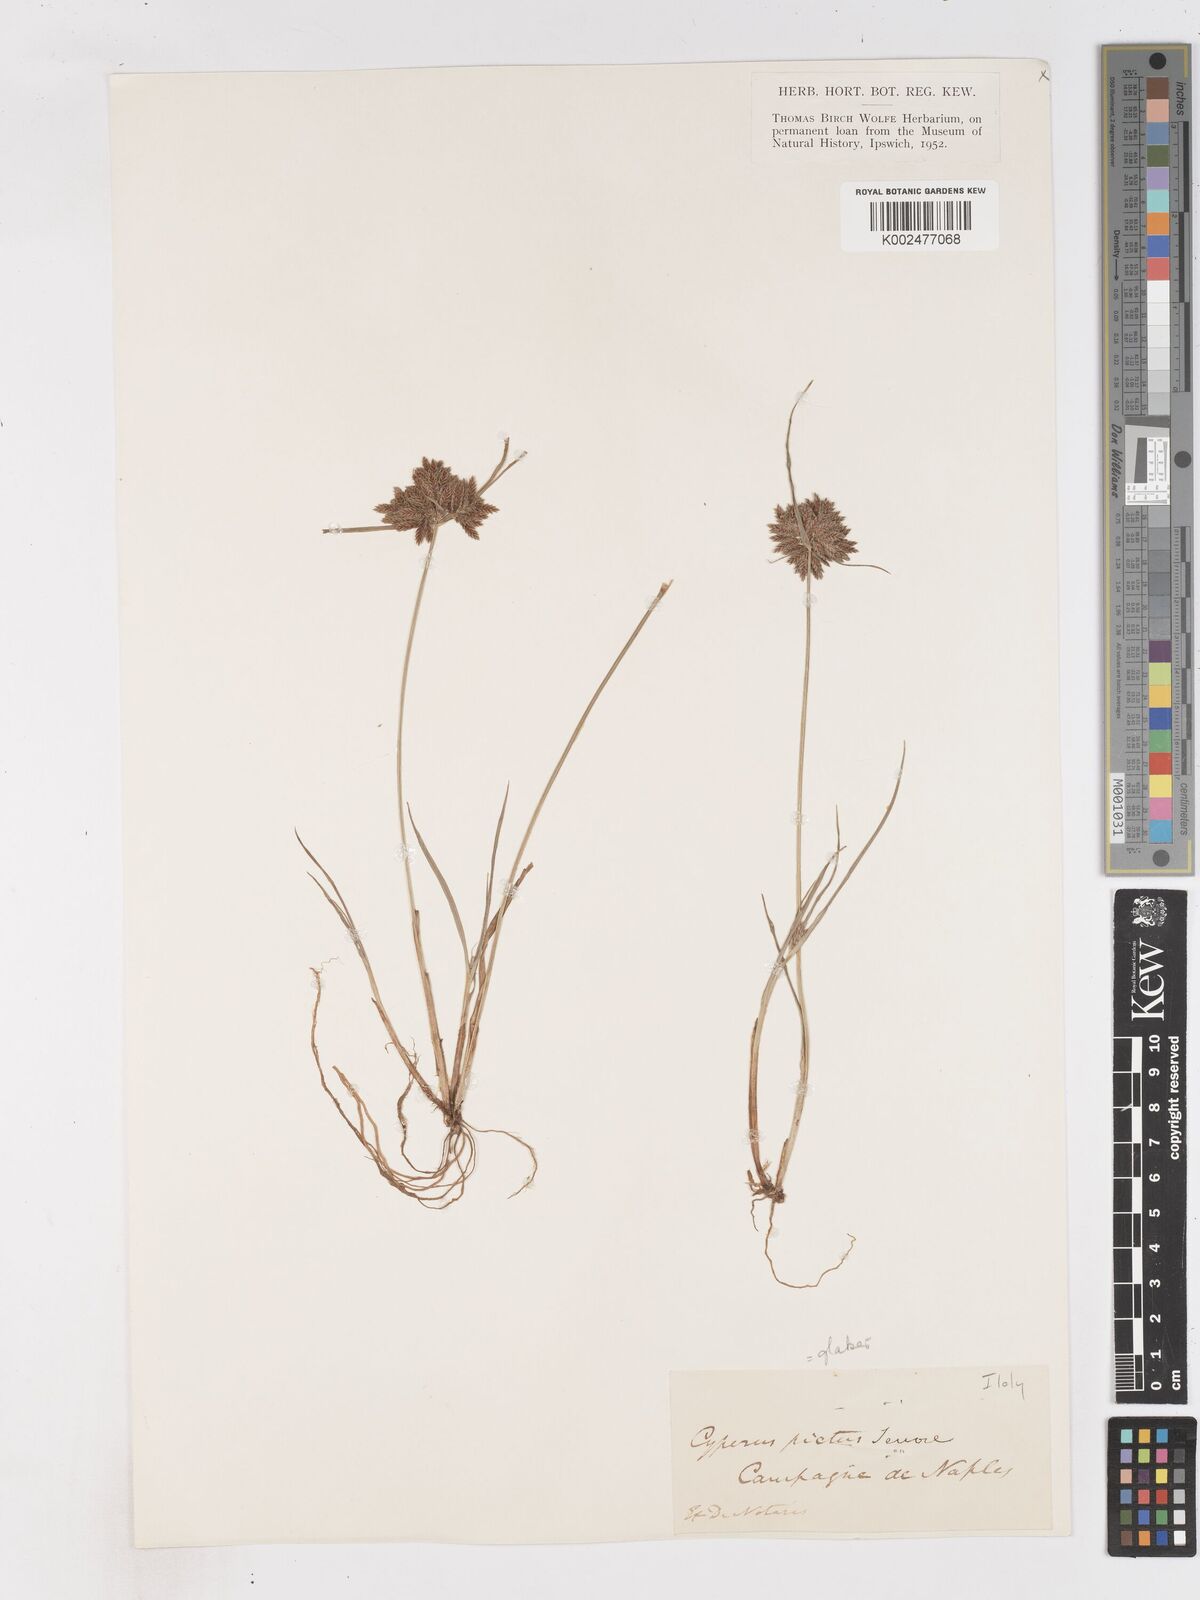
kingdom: Plantae
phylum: Tracheophyta
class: Liliopsida
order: Poales
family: Cyperaceae
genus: Cyperus
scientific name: Cyperus glaber
